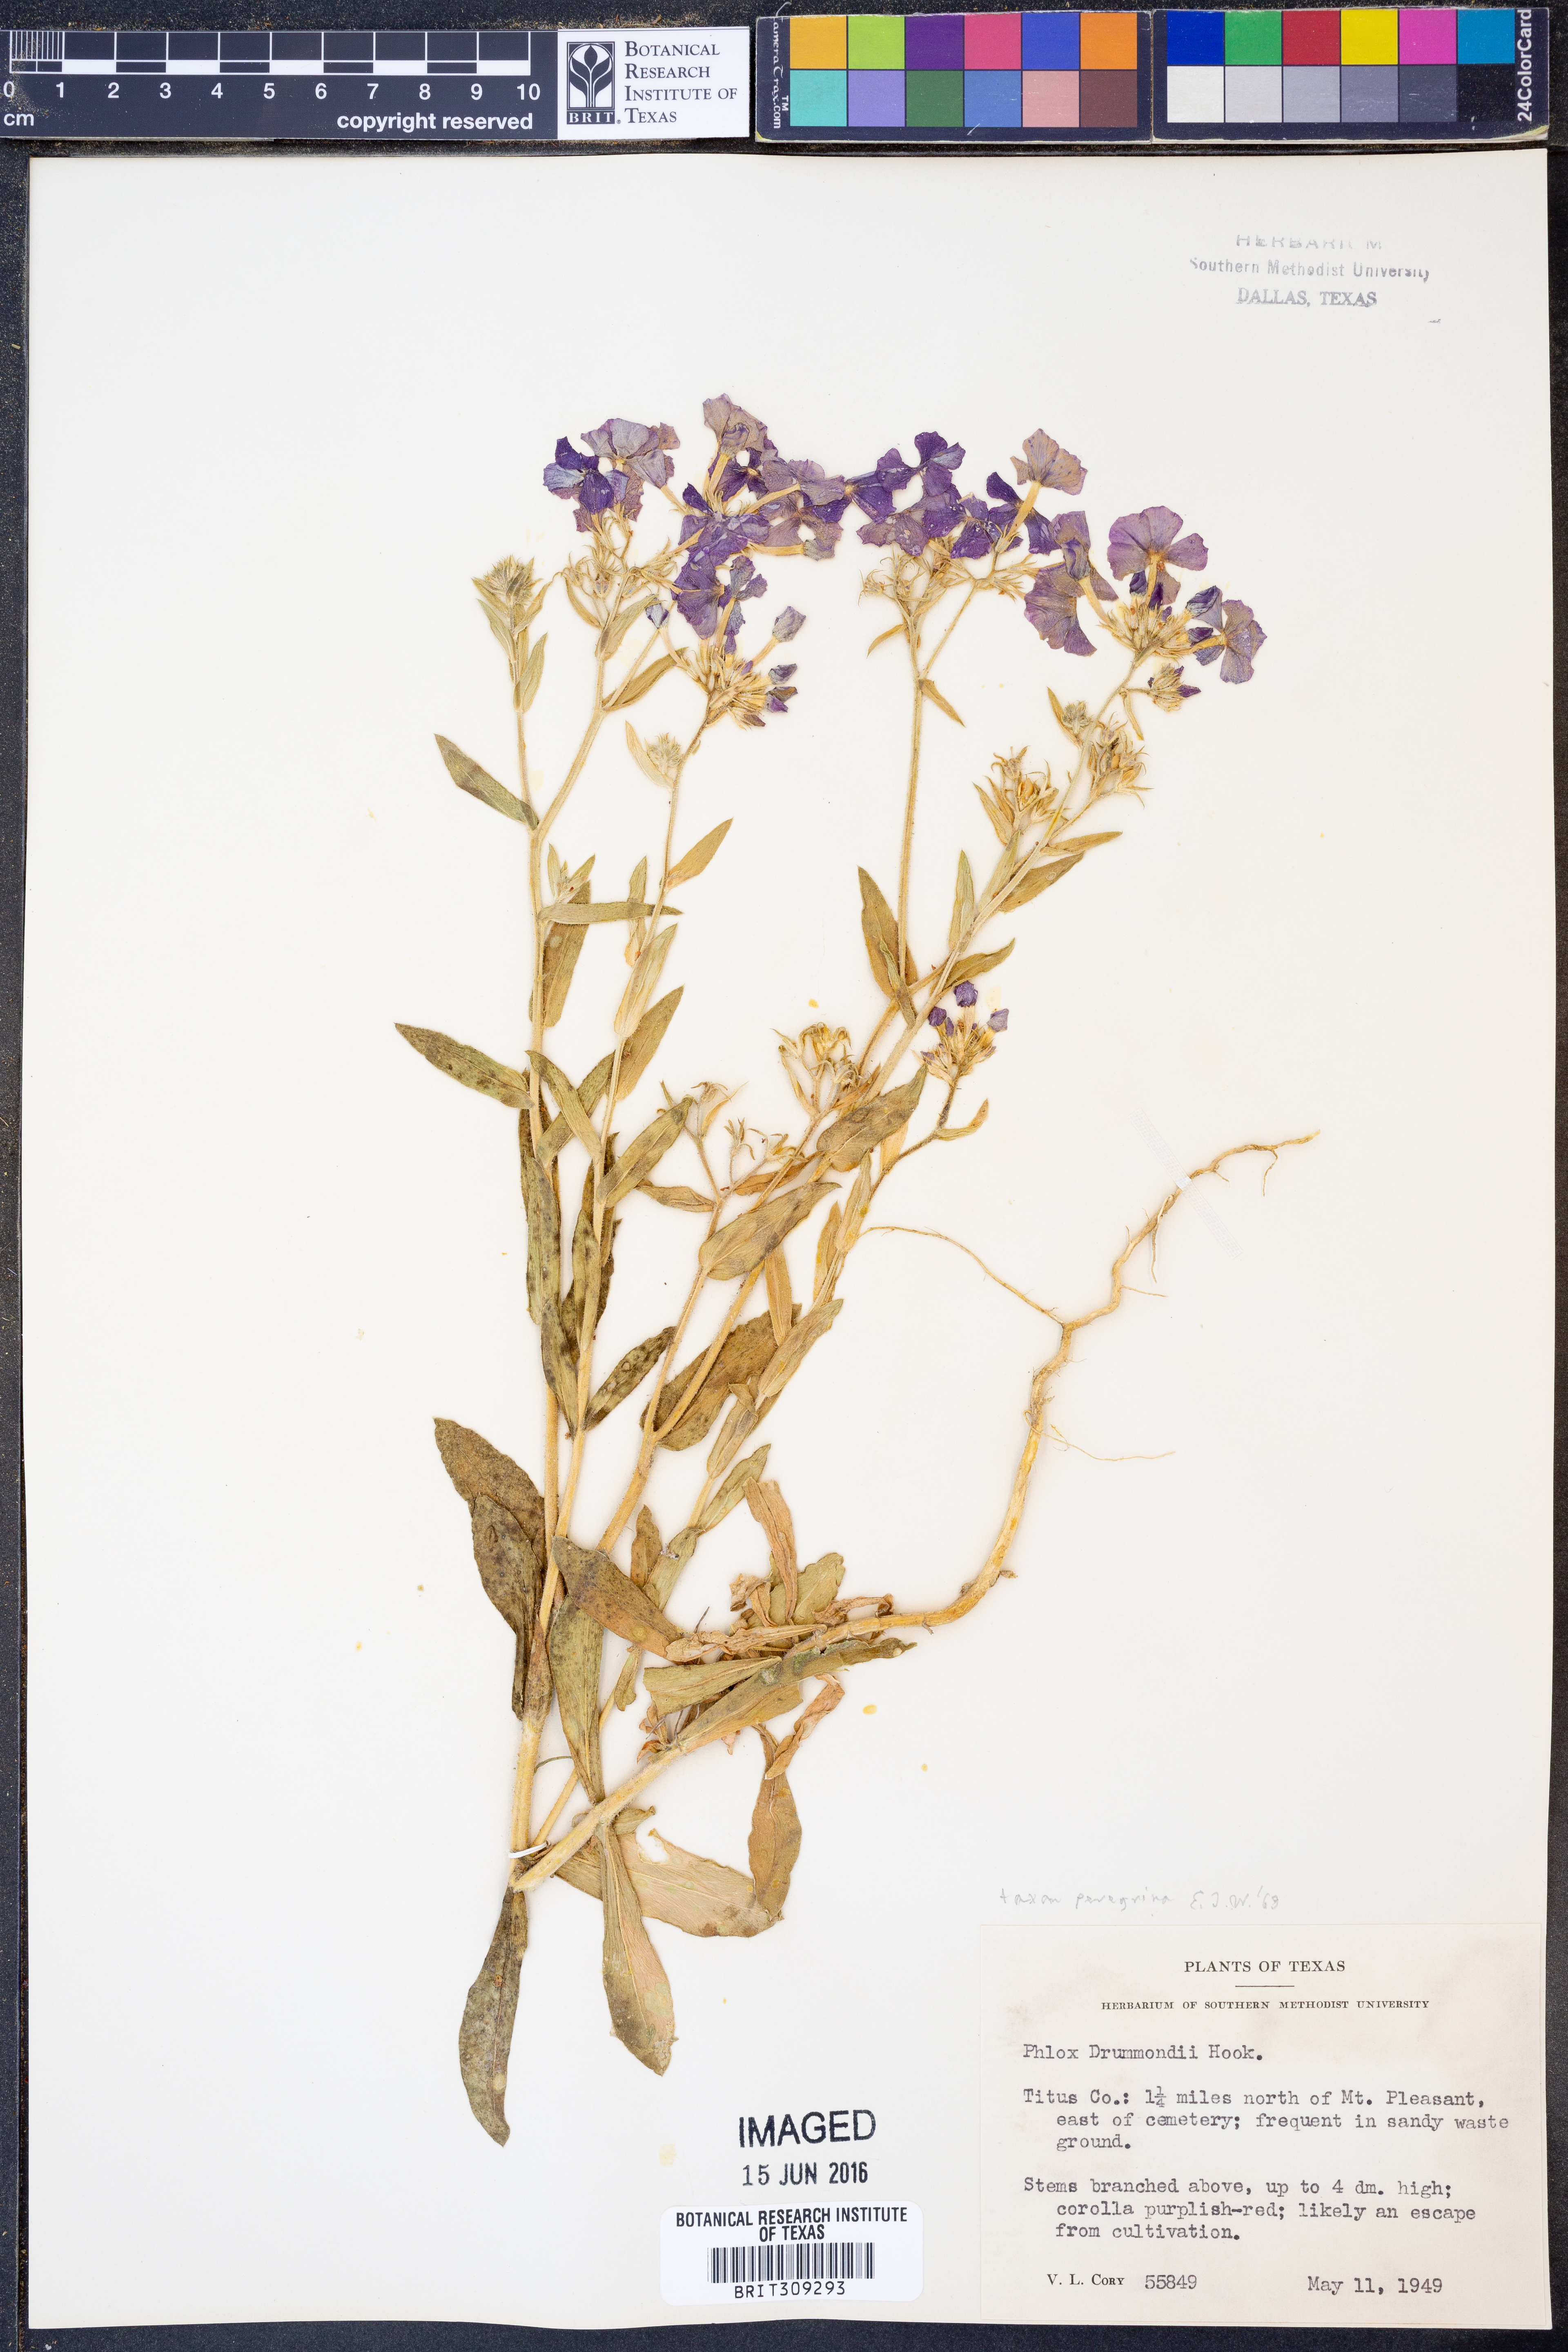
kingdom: Plantae
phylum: Tracheophyta
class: Magnoliopsida
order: Ericales
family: Polemoniaceae
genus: Phlox
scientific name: Phlox drummondii
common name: Drummond's phlox
